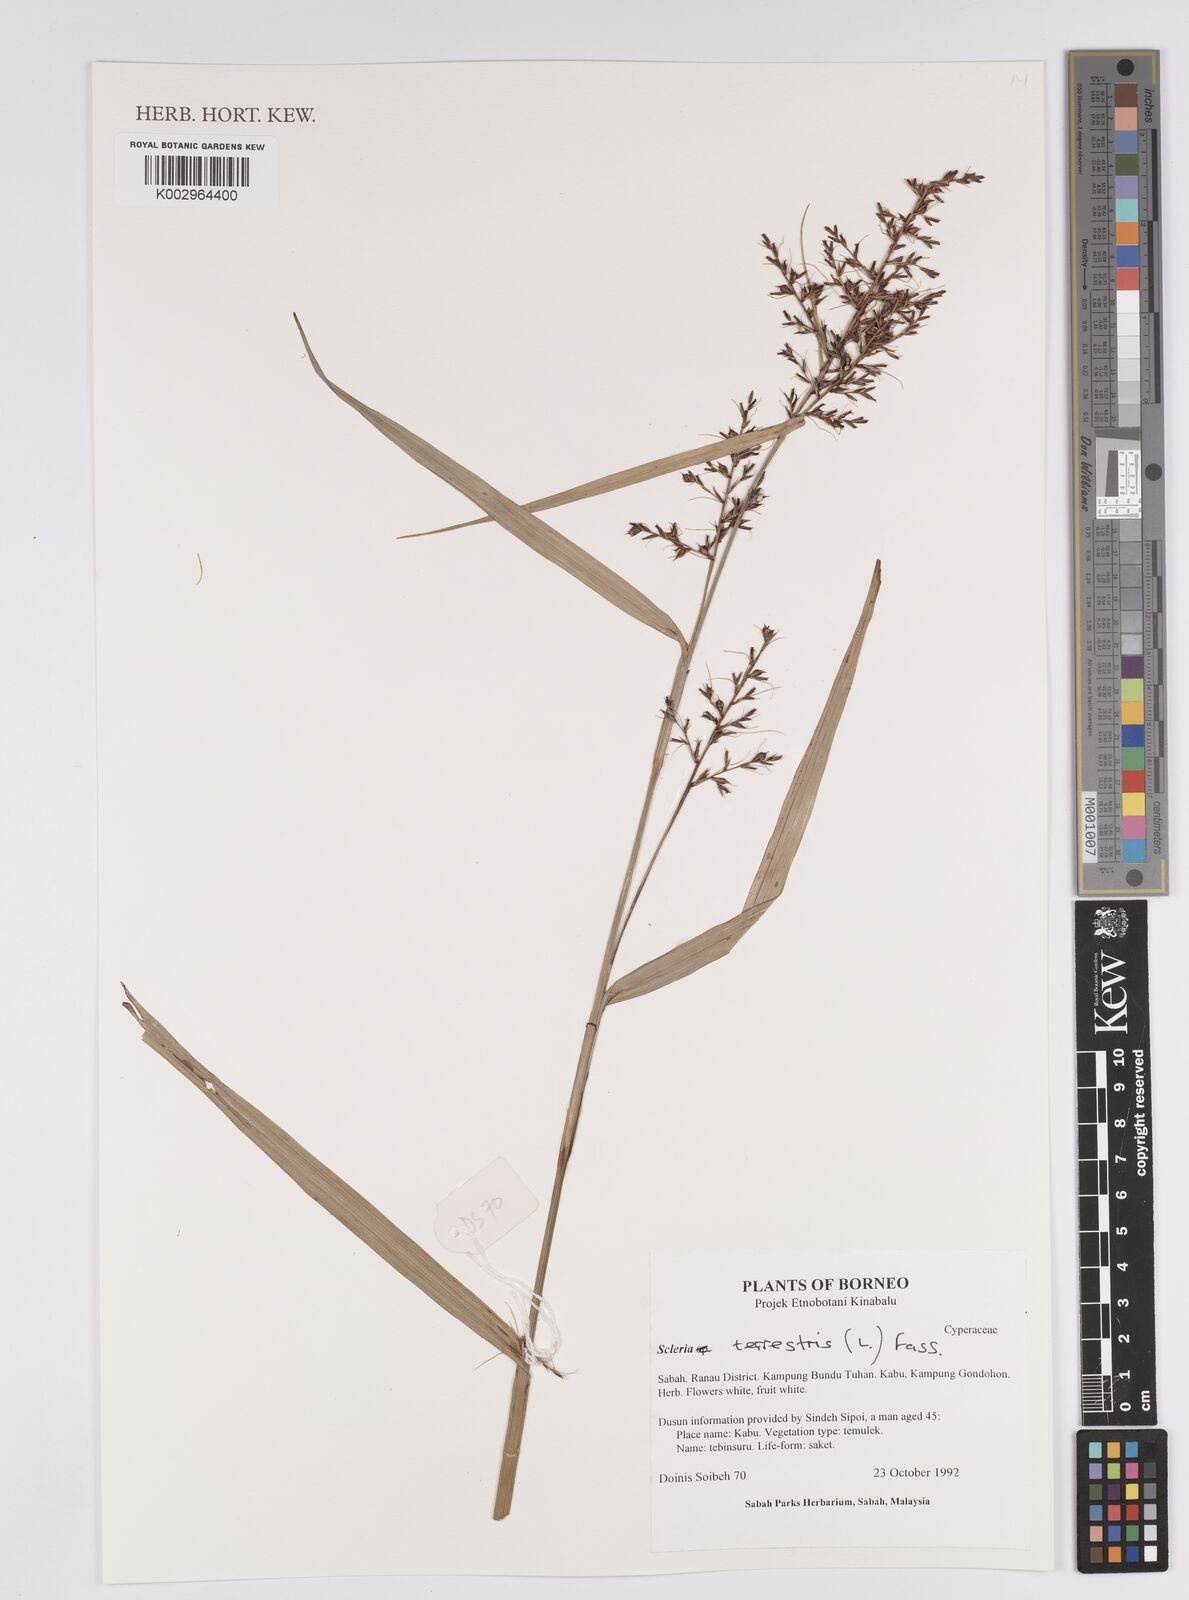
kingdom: Plantae
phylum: Tracheophyta
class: Liliopsida
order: Poales
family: Cyperaceae
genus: Scleria
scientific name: Scleria terrestris
